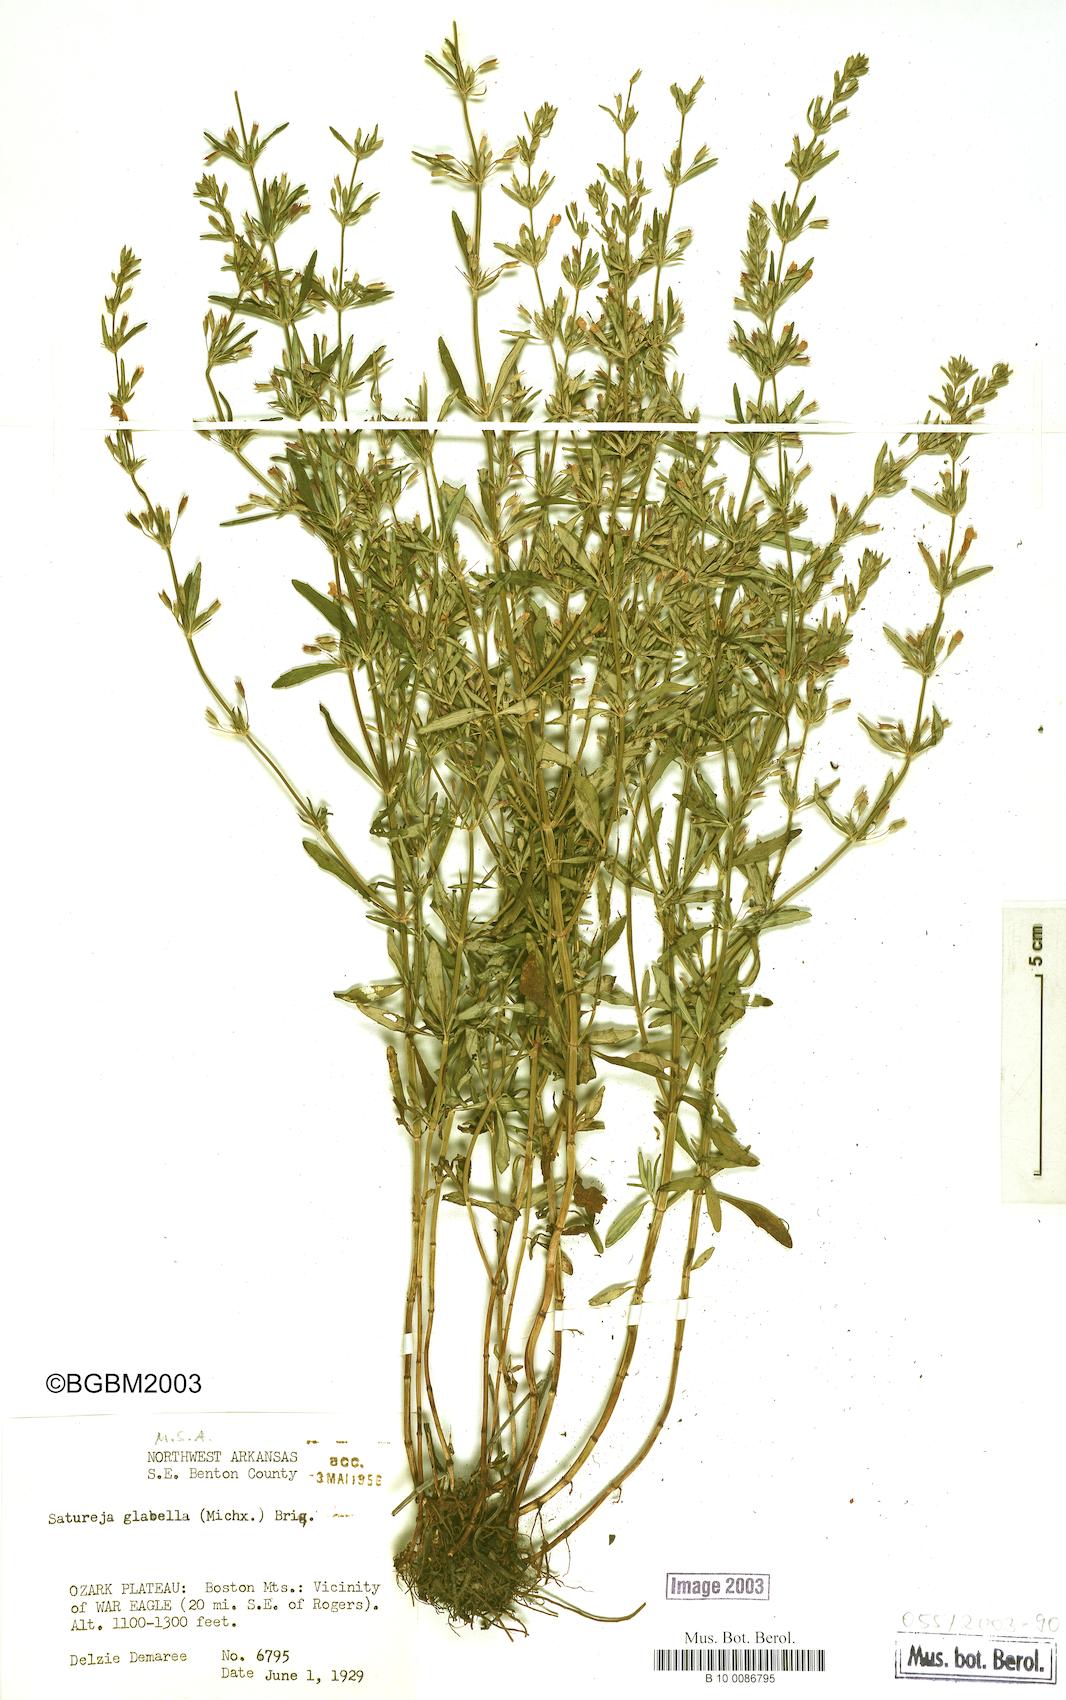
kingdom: Plantae
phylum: Tracheophyta
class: Magnoliopsida
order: Lamiales
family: Lamiaceae
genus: Clinopodium
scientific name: Clinopodium glabellum
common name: Ozark calamint
